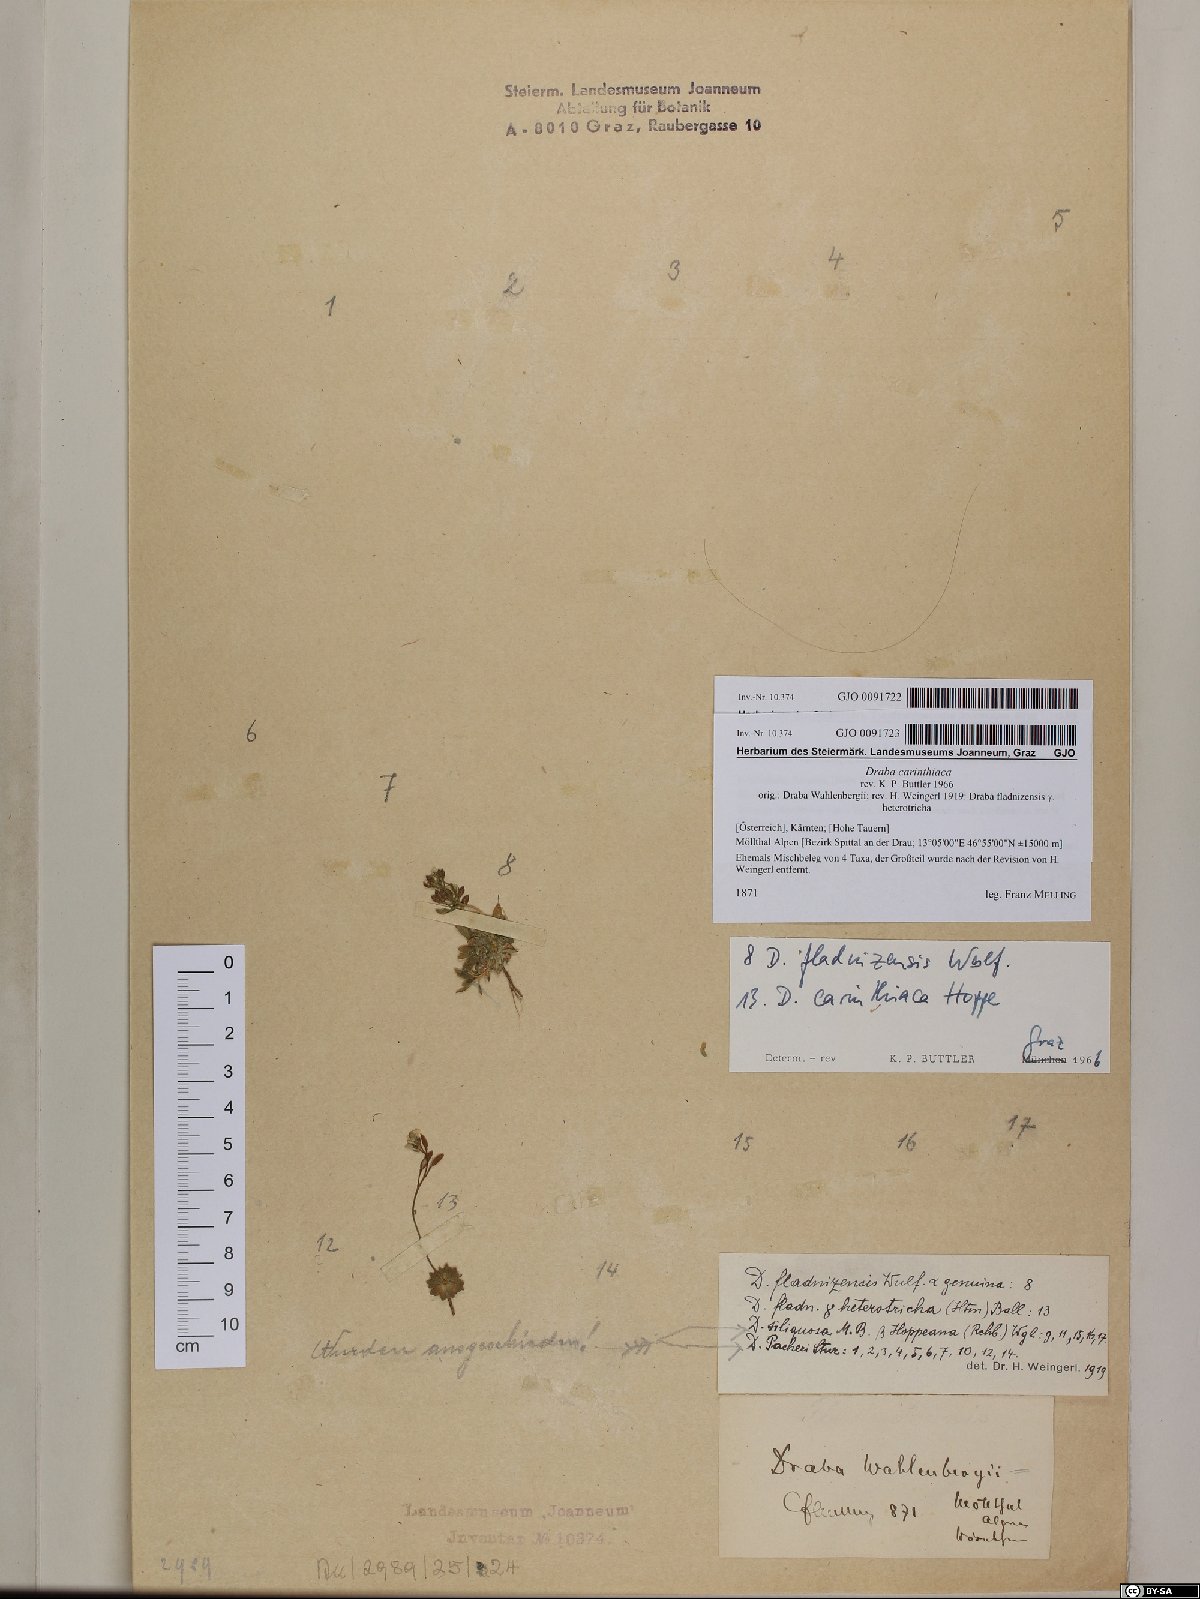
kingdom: Plantae
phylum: Tracheophyta
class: Magnoliopsida
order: Brassicales
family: Brassicaceae
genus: Draba
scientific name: Draba fladnizensis
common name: Austrian draba
